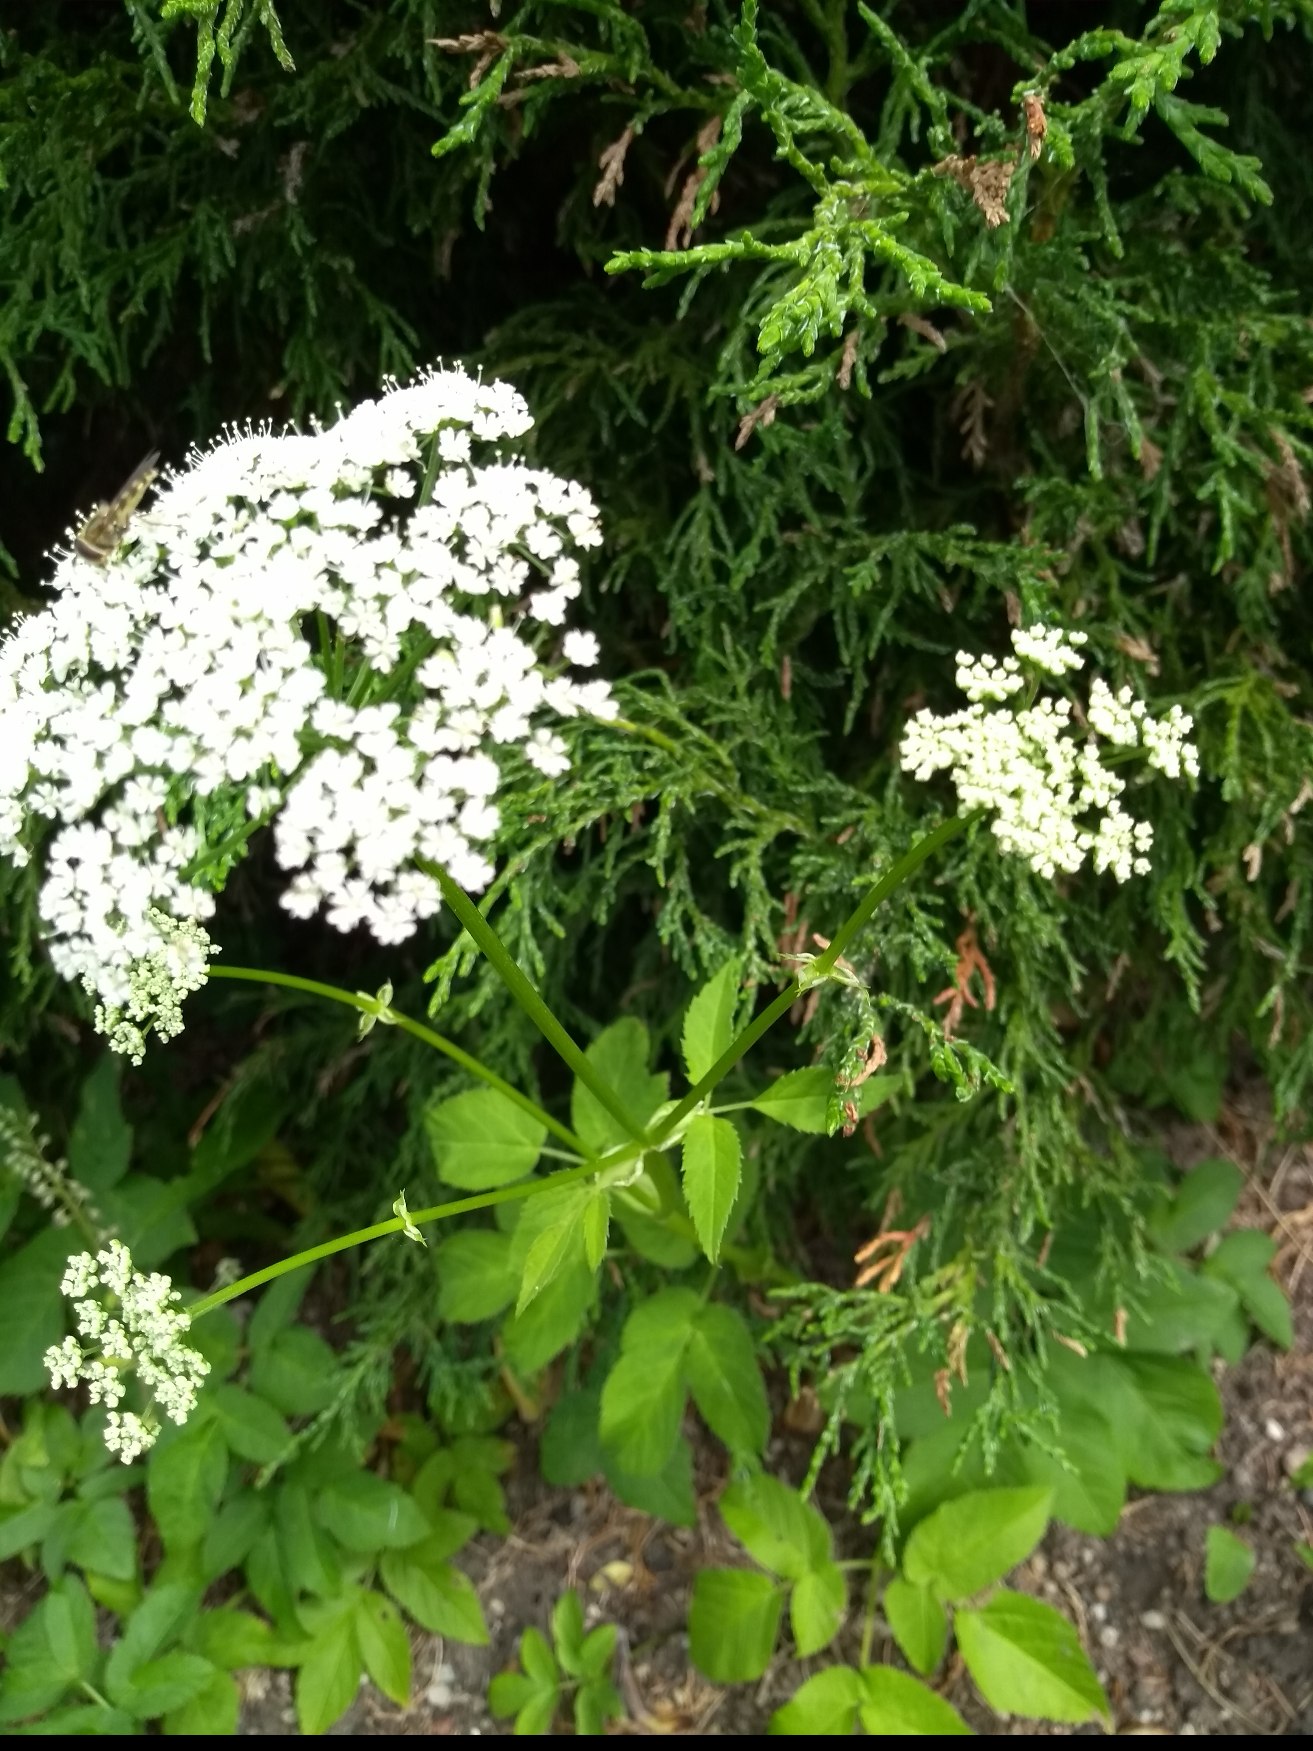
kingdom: Plantae
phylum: Tracheophyta
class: Magnoliopsida
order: Apiales
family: Apiaceae
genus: Aegopodium
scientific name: Aegopodium podagraria
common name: Skvalderkål
